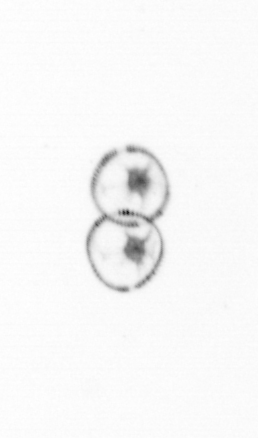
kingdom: Chromista
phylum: Myzozoa
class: Dinophyceae
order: Noctilucales
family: Noctilucaceae
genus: Noctiluca
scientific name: Noctiluca scintillans
